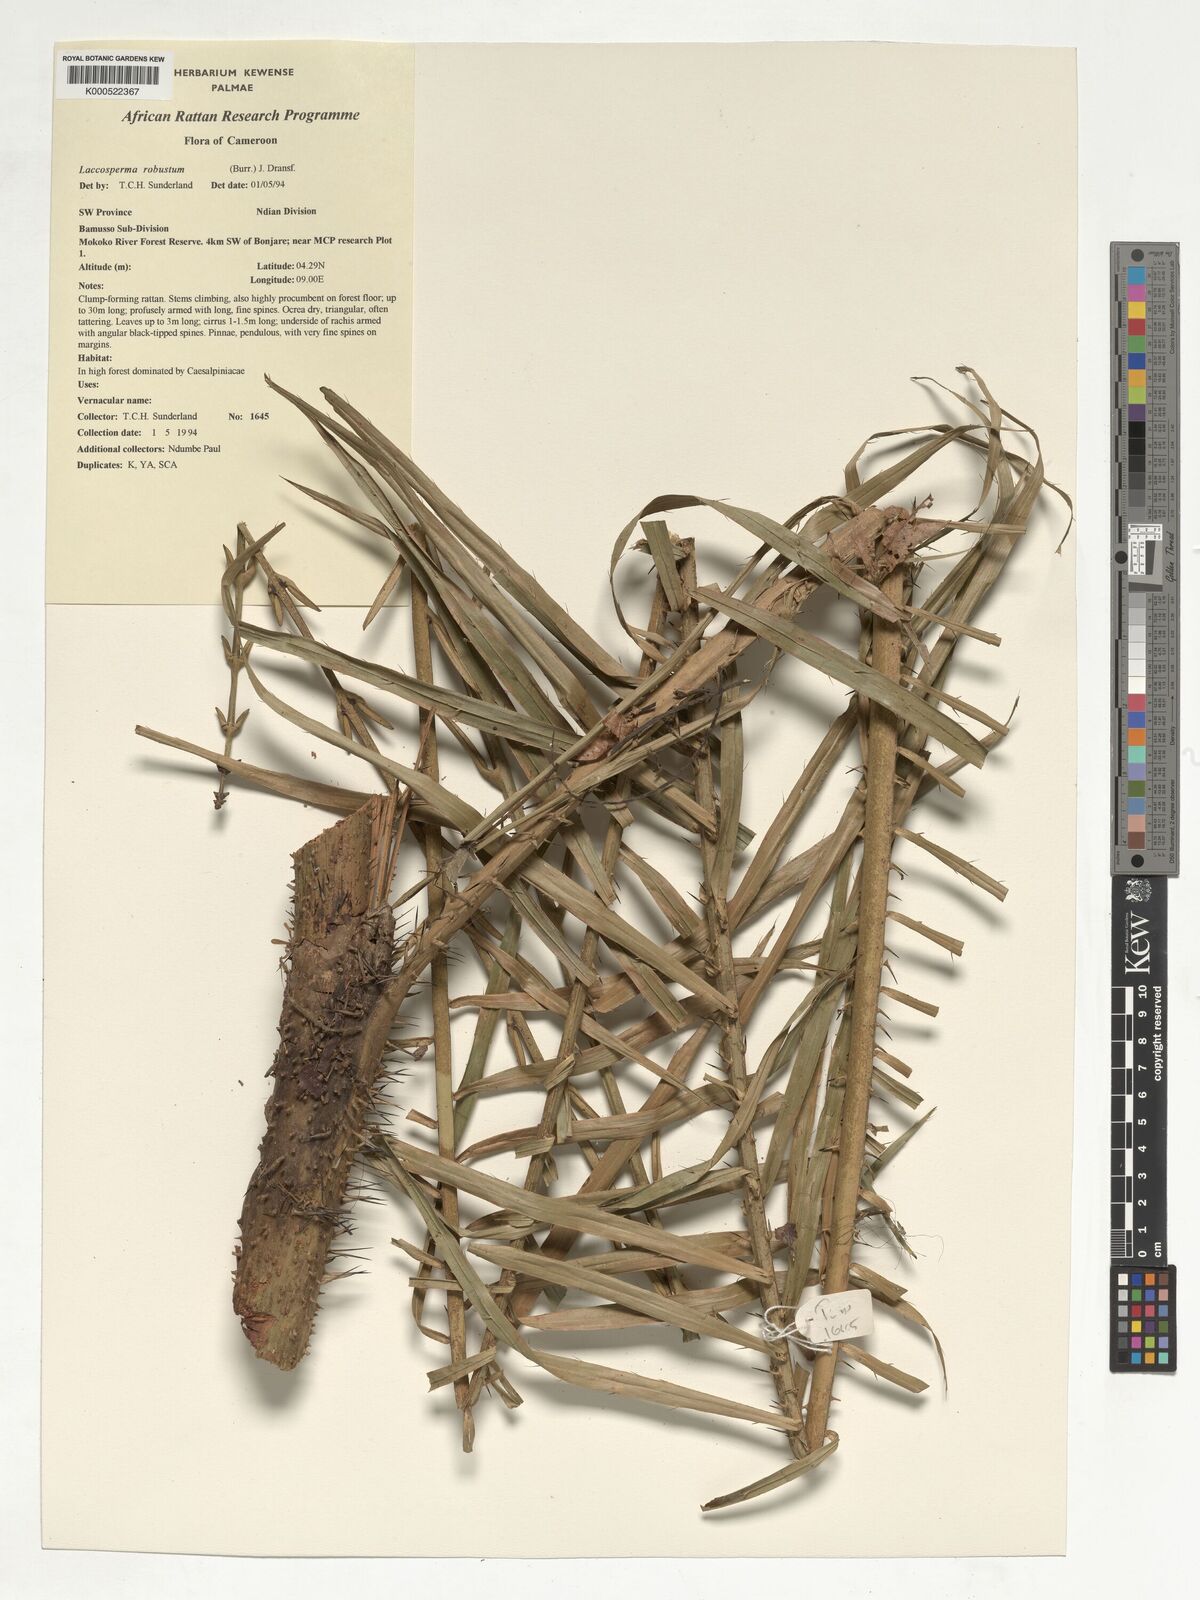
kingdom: Plantae
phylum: Tracheophyta
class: Liliopsida
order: Arecales
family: Arecaceae
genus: Laccosperma
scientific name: Laccosperma robustum
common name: Rattan
